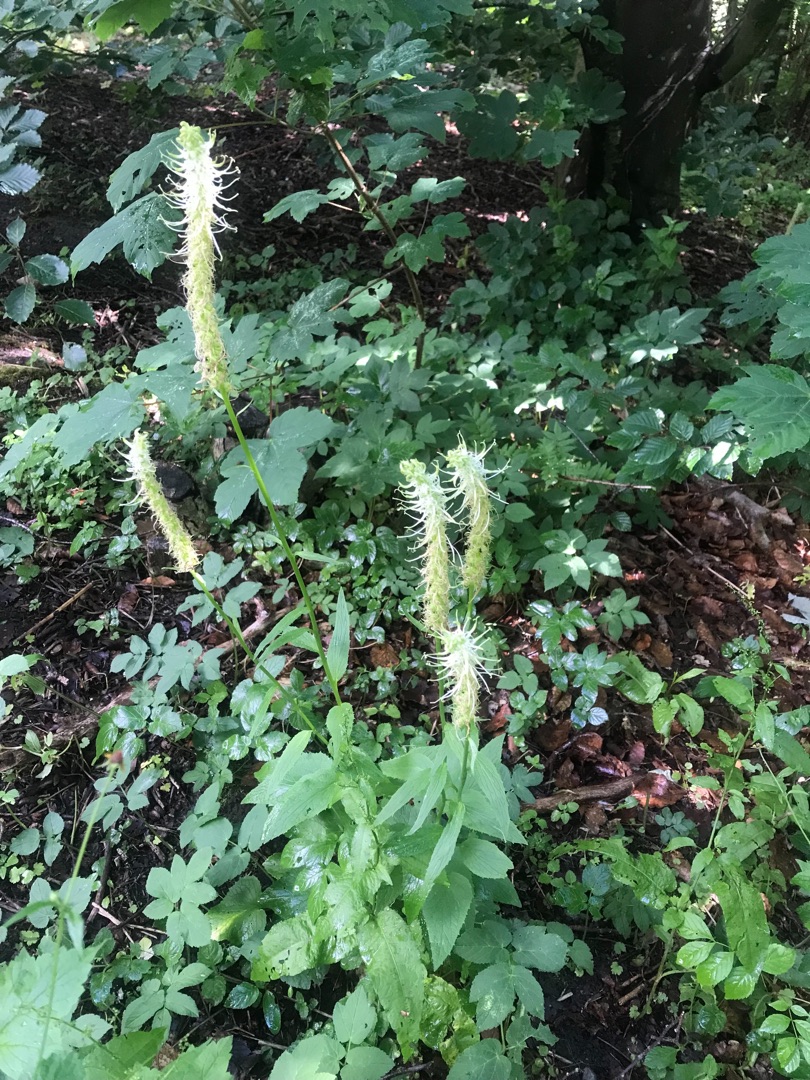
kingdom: Plantae
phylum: Tracheophyta
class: Magnoliopsida
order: Asterales
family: Campanulaceae
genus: Phyteuma
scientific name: Phyteuma spicatum
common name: Aks-rapunsel
